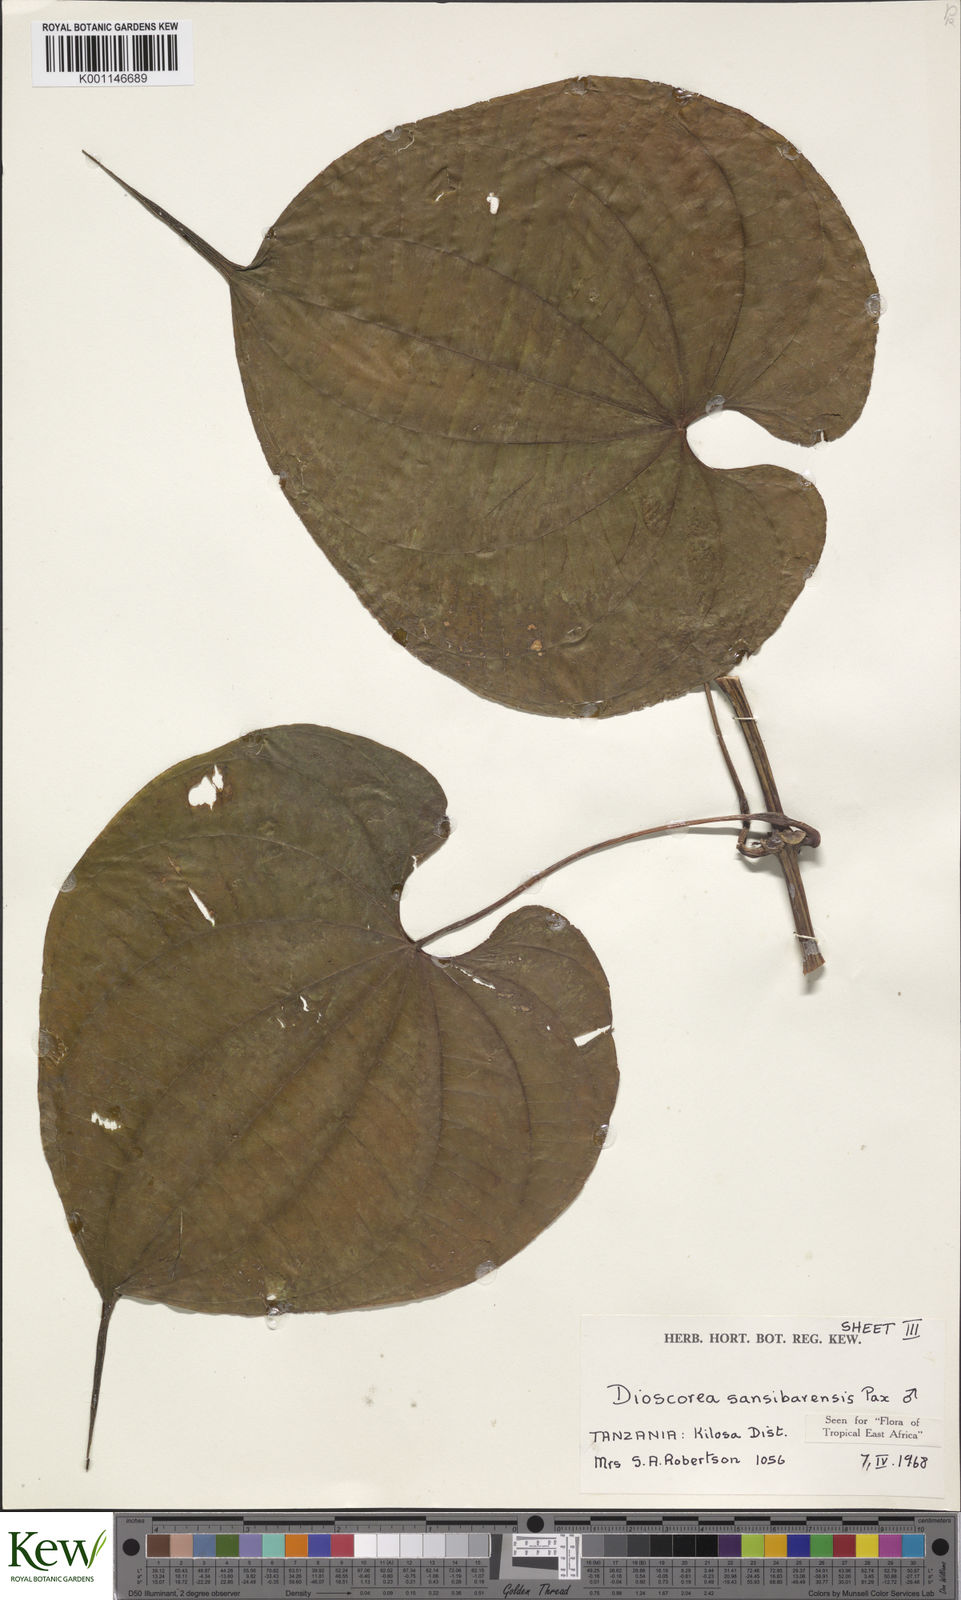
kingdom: Plantae
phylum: Tracheophyta
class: Liliopsida
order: Dioscoreales
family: Dioscoreaceae
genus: Dioscorea
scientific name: Dioscorea sansibarensis
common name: Zanzibar yam
